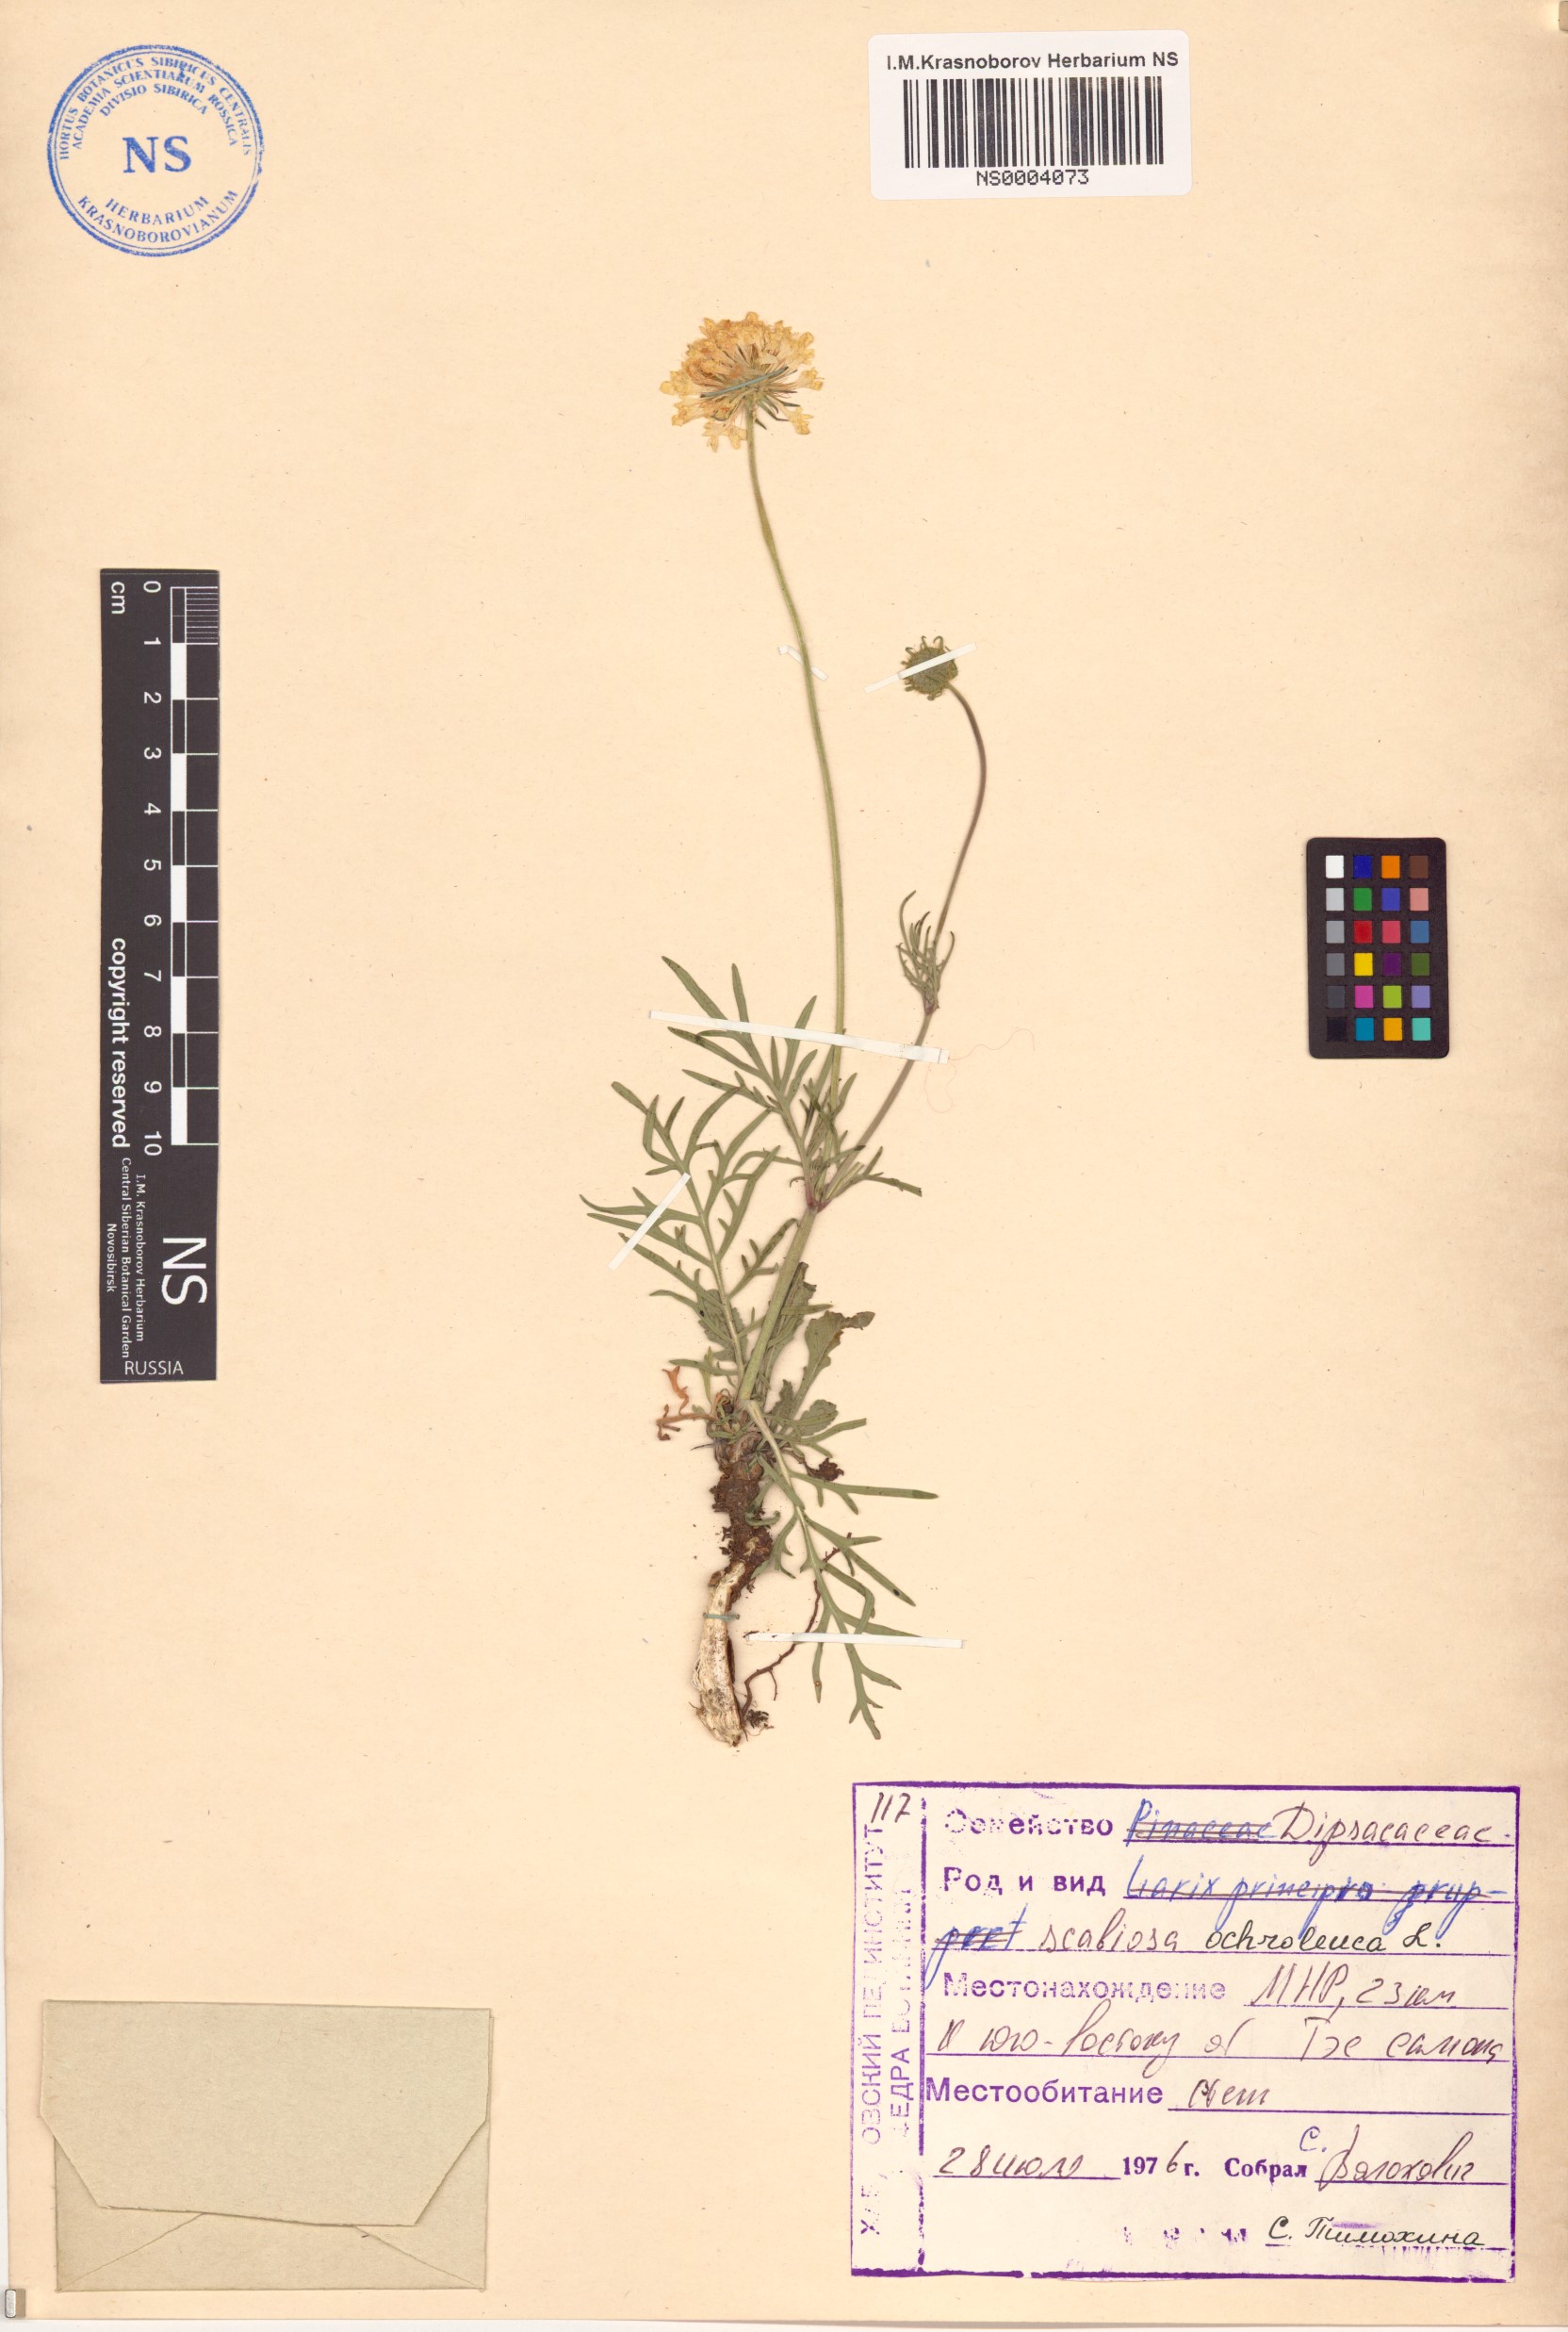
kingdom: Plantae
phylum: Tracheophyta
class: Magnoliopsida
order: Dipsacales
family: Caprifoliaceae
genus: Scabiosa
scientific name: Scabiosa ochroleuca
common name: Cream pincushions
